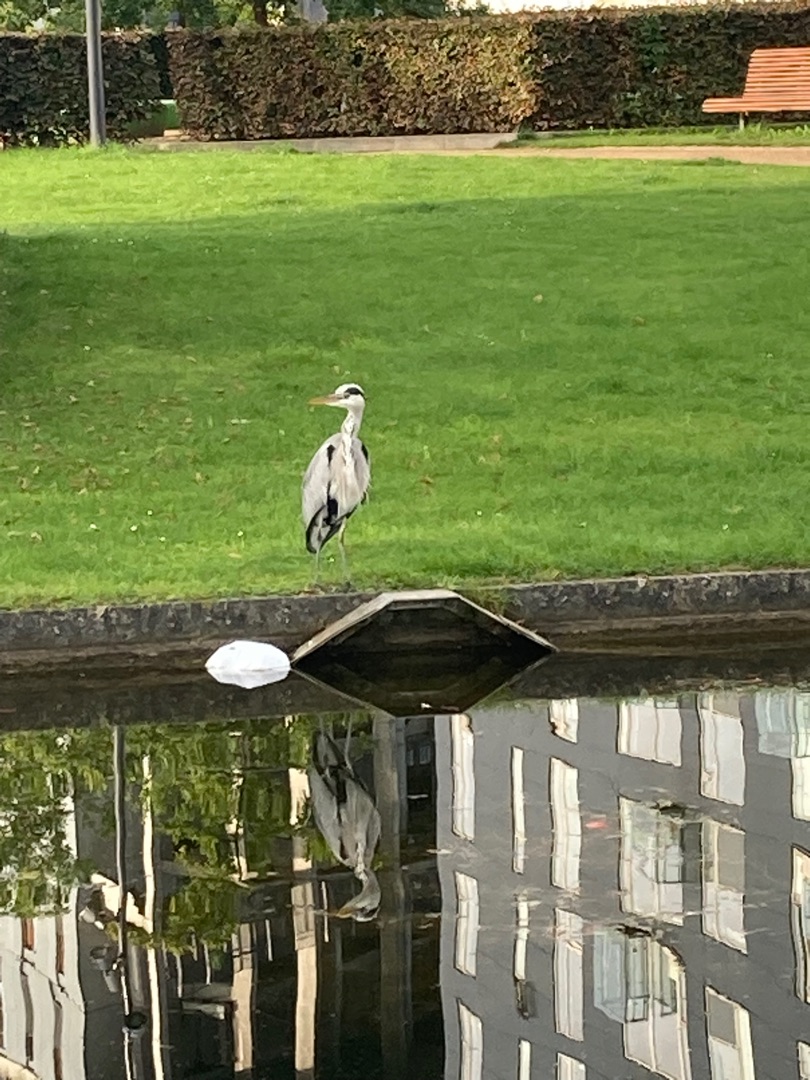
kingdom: Animalia
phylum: Chordata
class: Aves
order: Pelecaniformes
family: Ardeidae
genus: Ardea
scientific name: Ardea cinerea
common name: Fiskehejre
